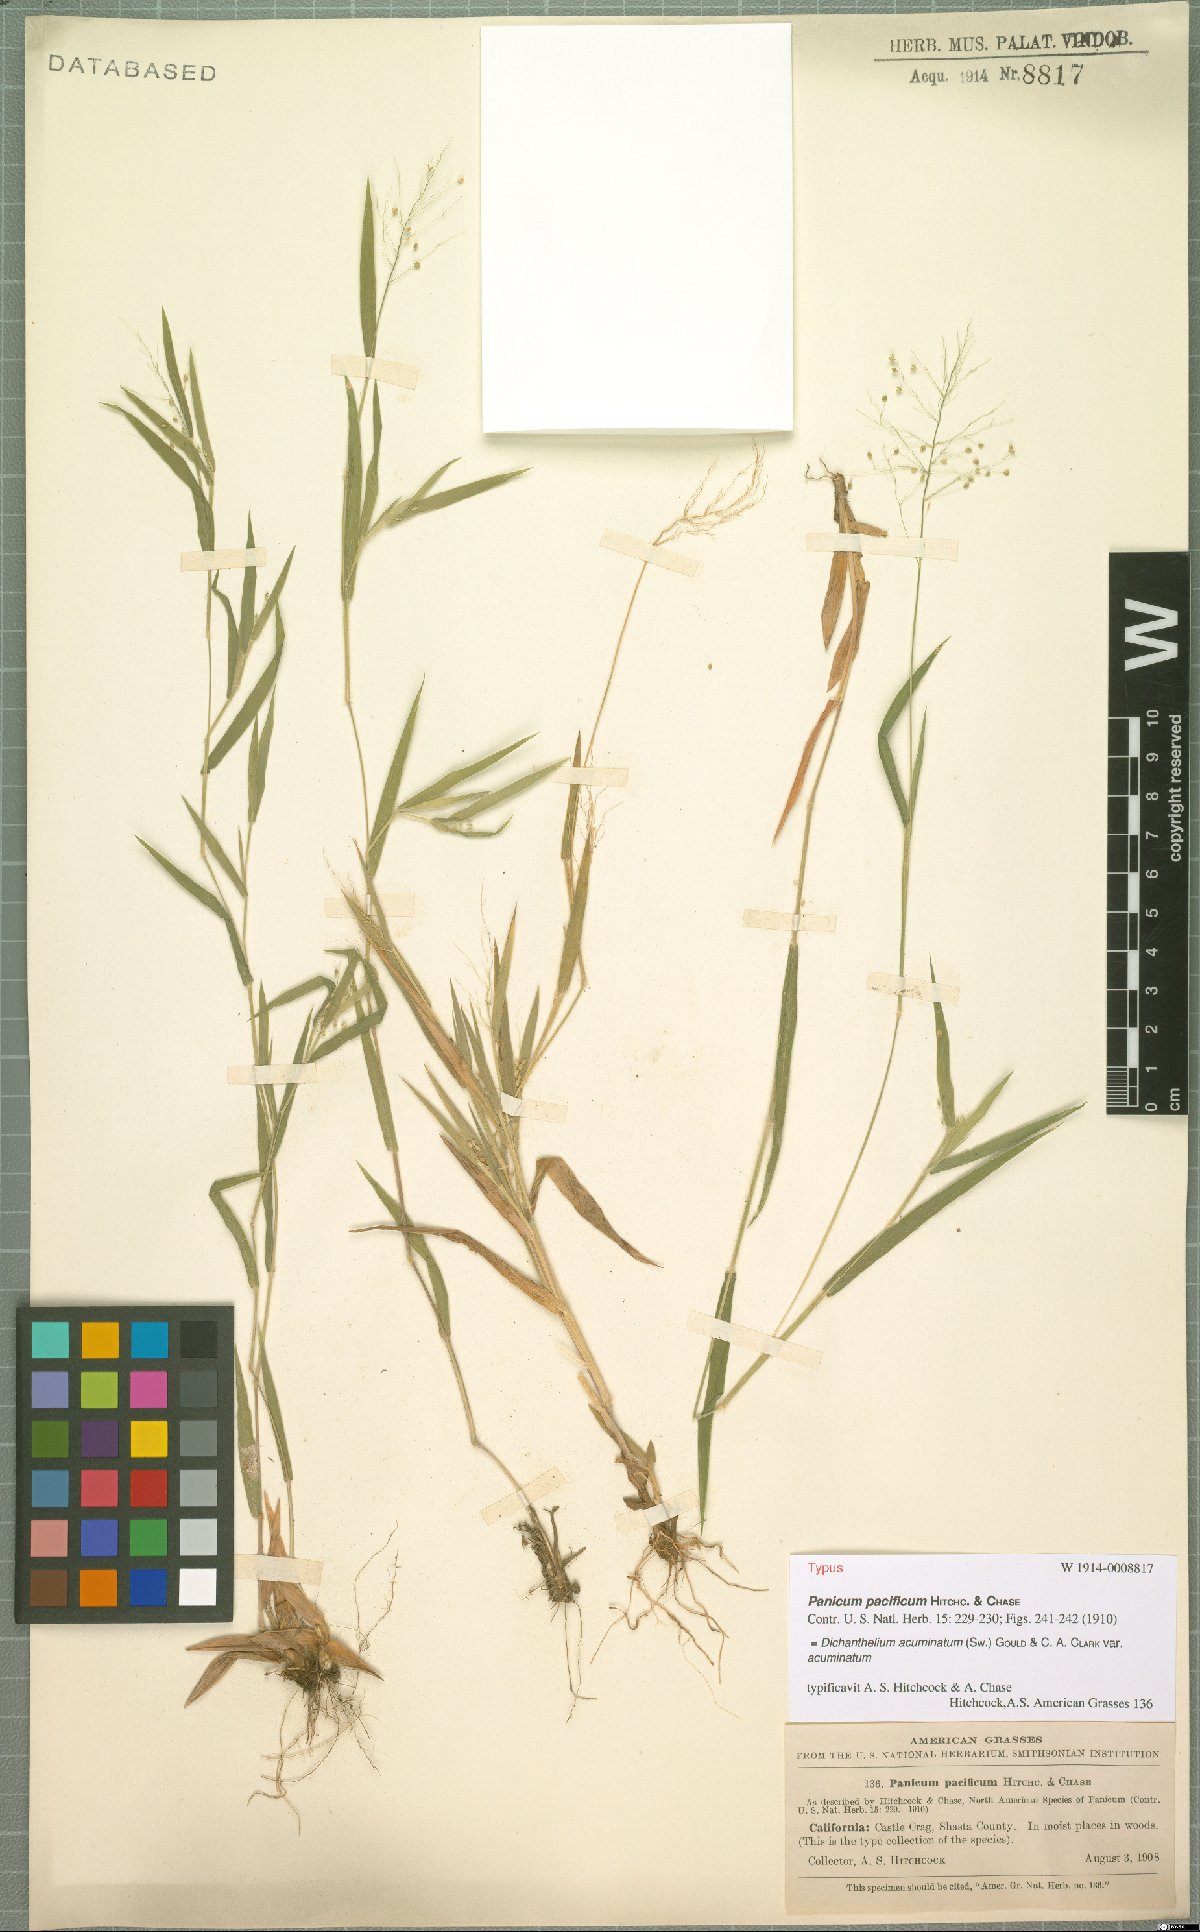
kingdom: Plantae
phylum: Tracheophyta
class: Liliopsida
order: Poales
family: Poaceae
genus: Dichanthelium
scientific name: Dichanthelium acuminatum
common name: Hairy panic grass
